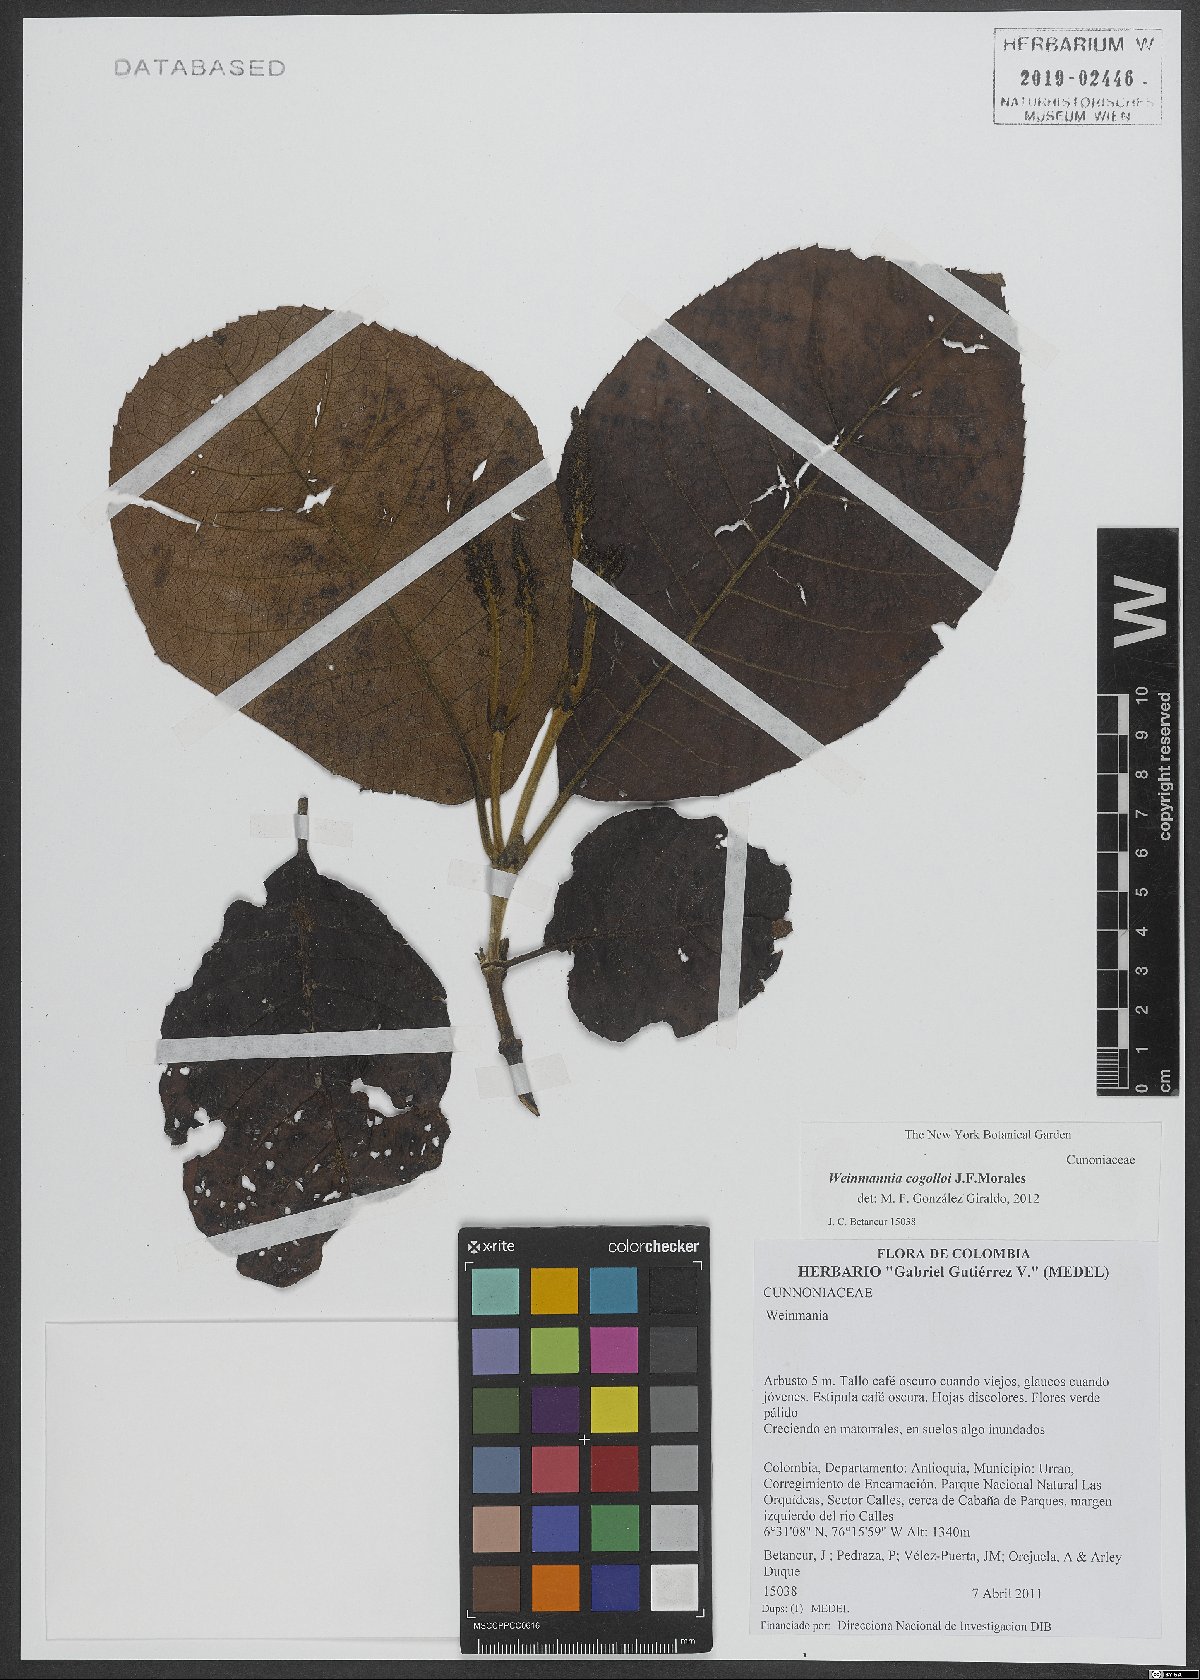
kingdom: Plantae
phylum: Tracheophyta
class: Magnoliopsida
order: Oxalidales
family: Cunoniaceae
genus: Weinmannia
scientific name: Weinmannia cogolloi
